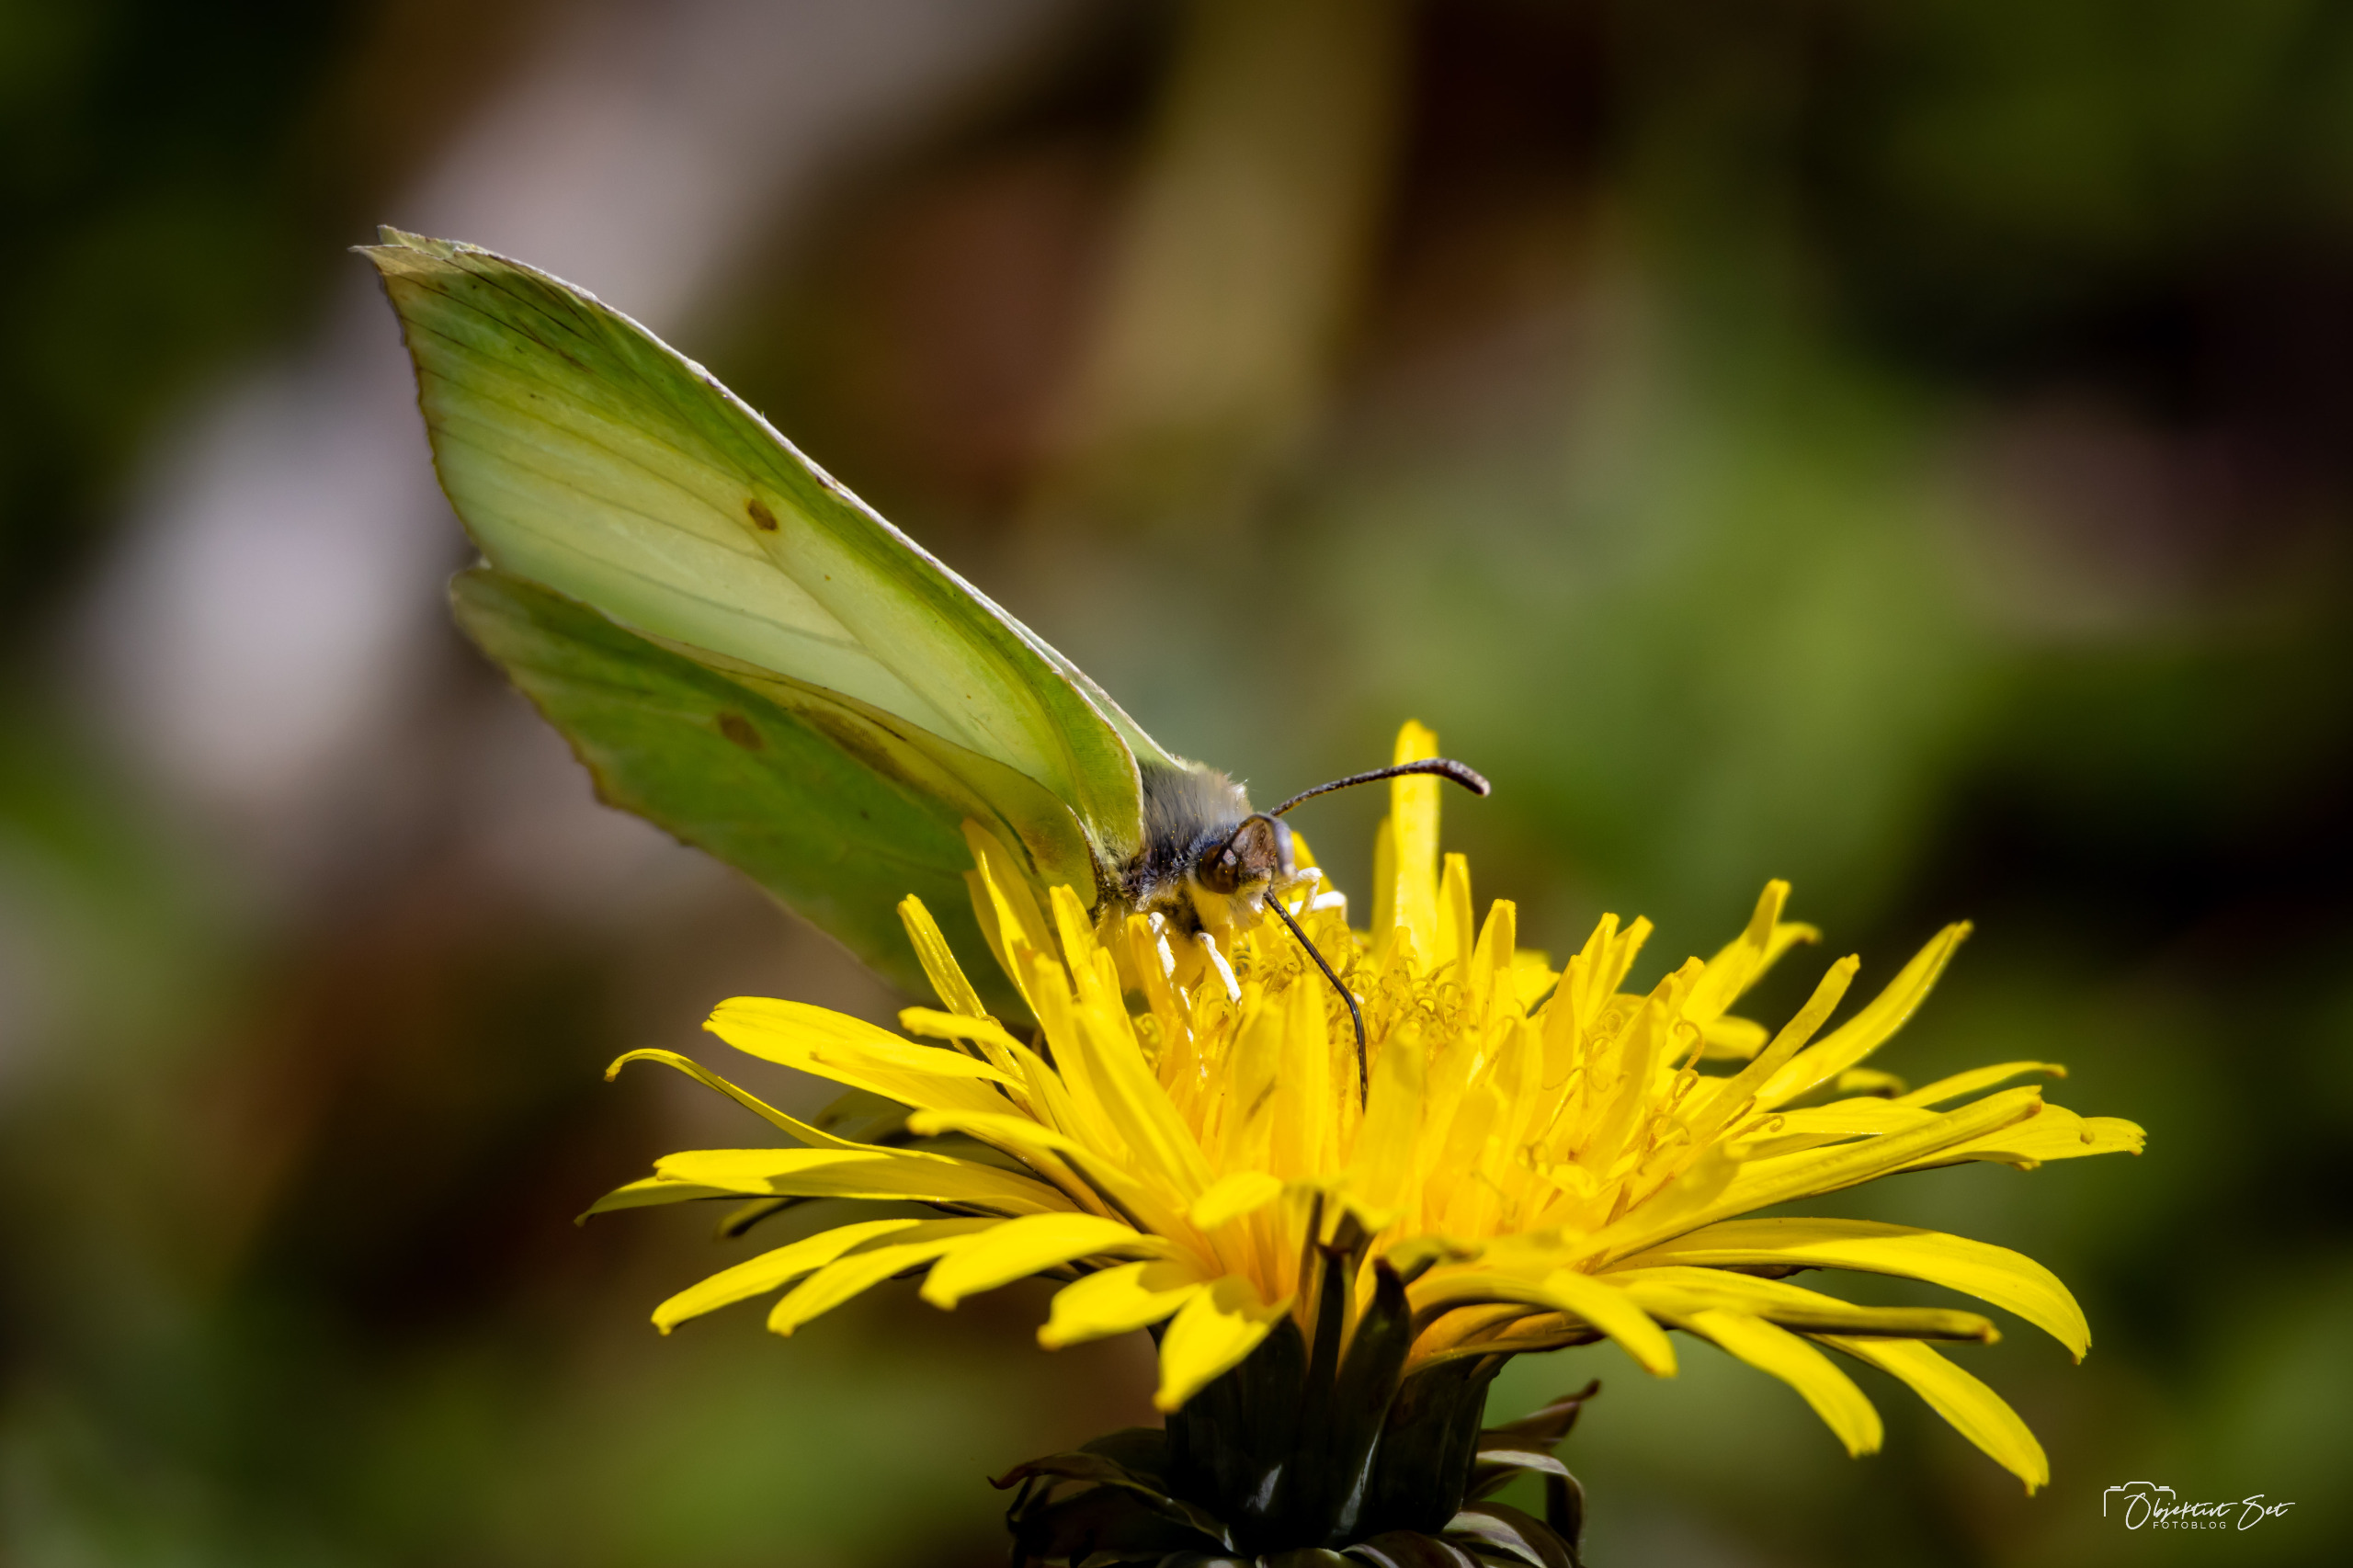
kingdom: Animalia
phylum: Arthropoda
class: Insecta
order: Lepidoptera
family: Pieridae
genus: Gonepteryx
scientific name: Gonepteryx rhamni
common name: Citronsommerfugl
